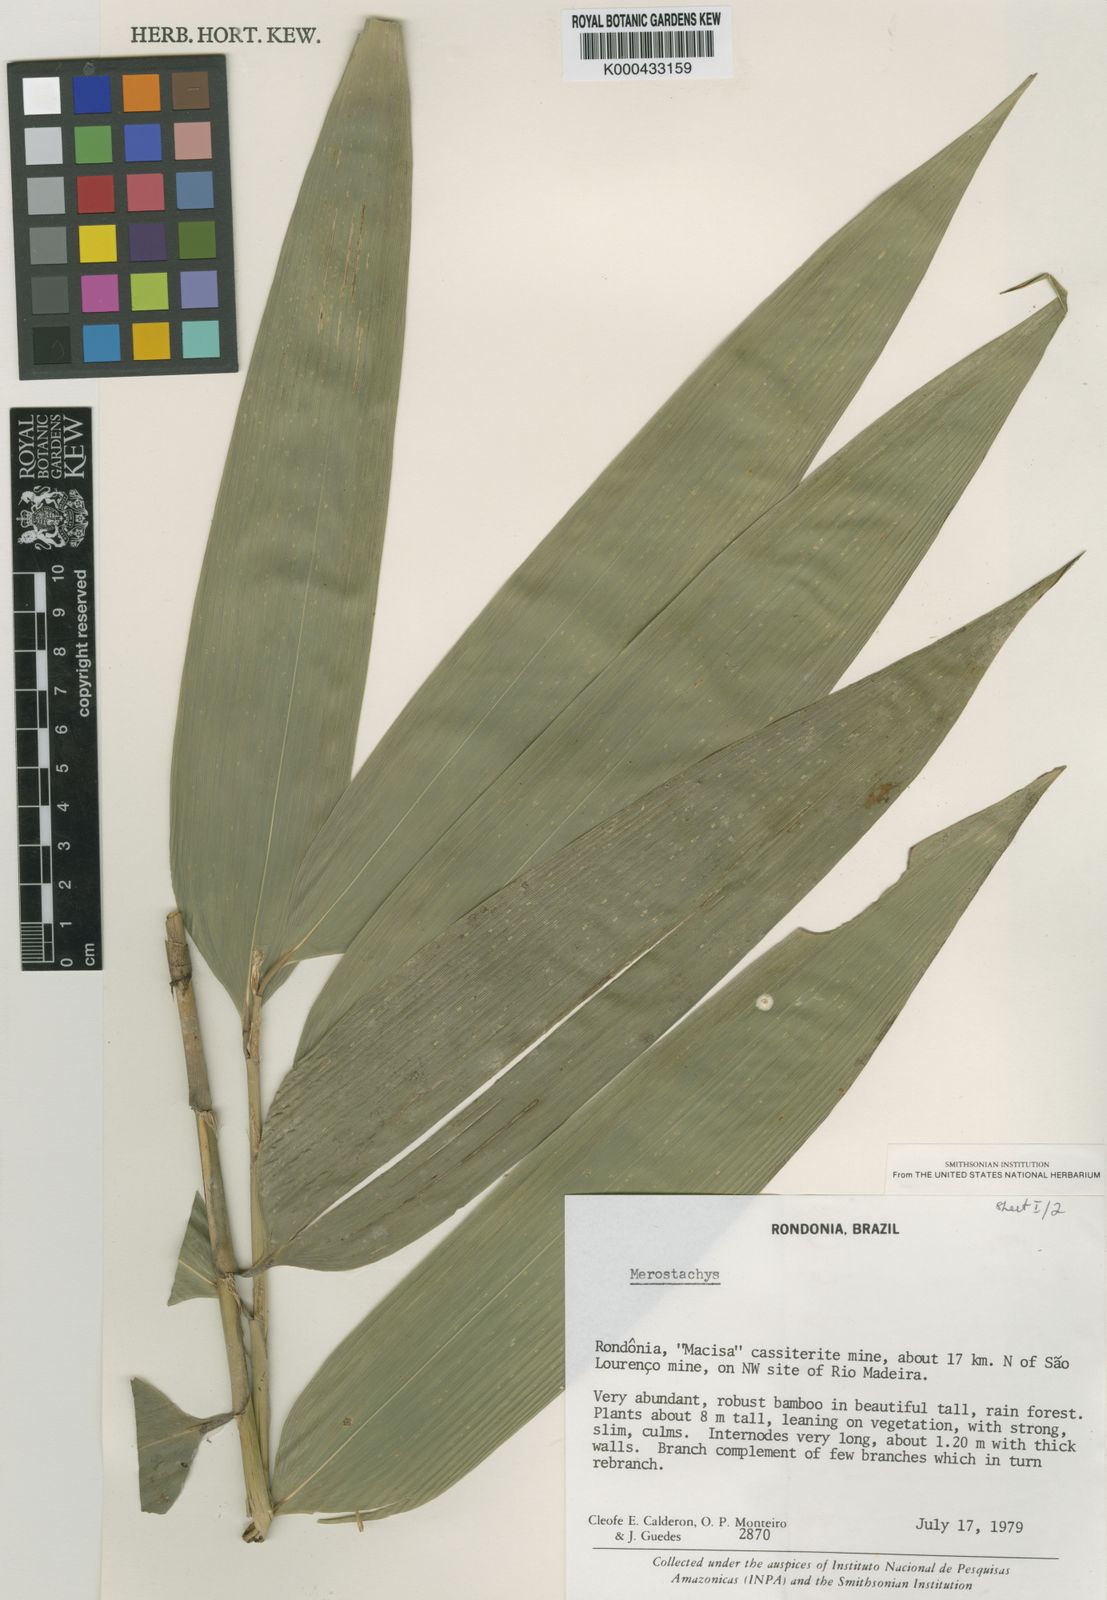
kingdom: Plantae
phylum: Tracheophyta
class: Liliopsida
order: Poales
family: Poaceae
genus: Merostachys
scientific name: Merostachys fimbriata
